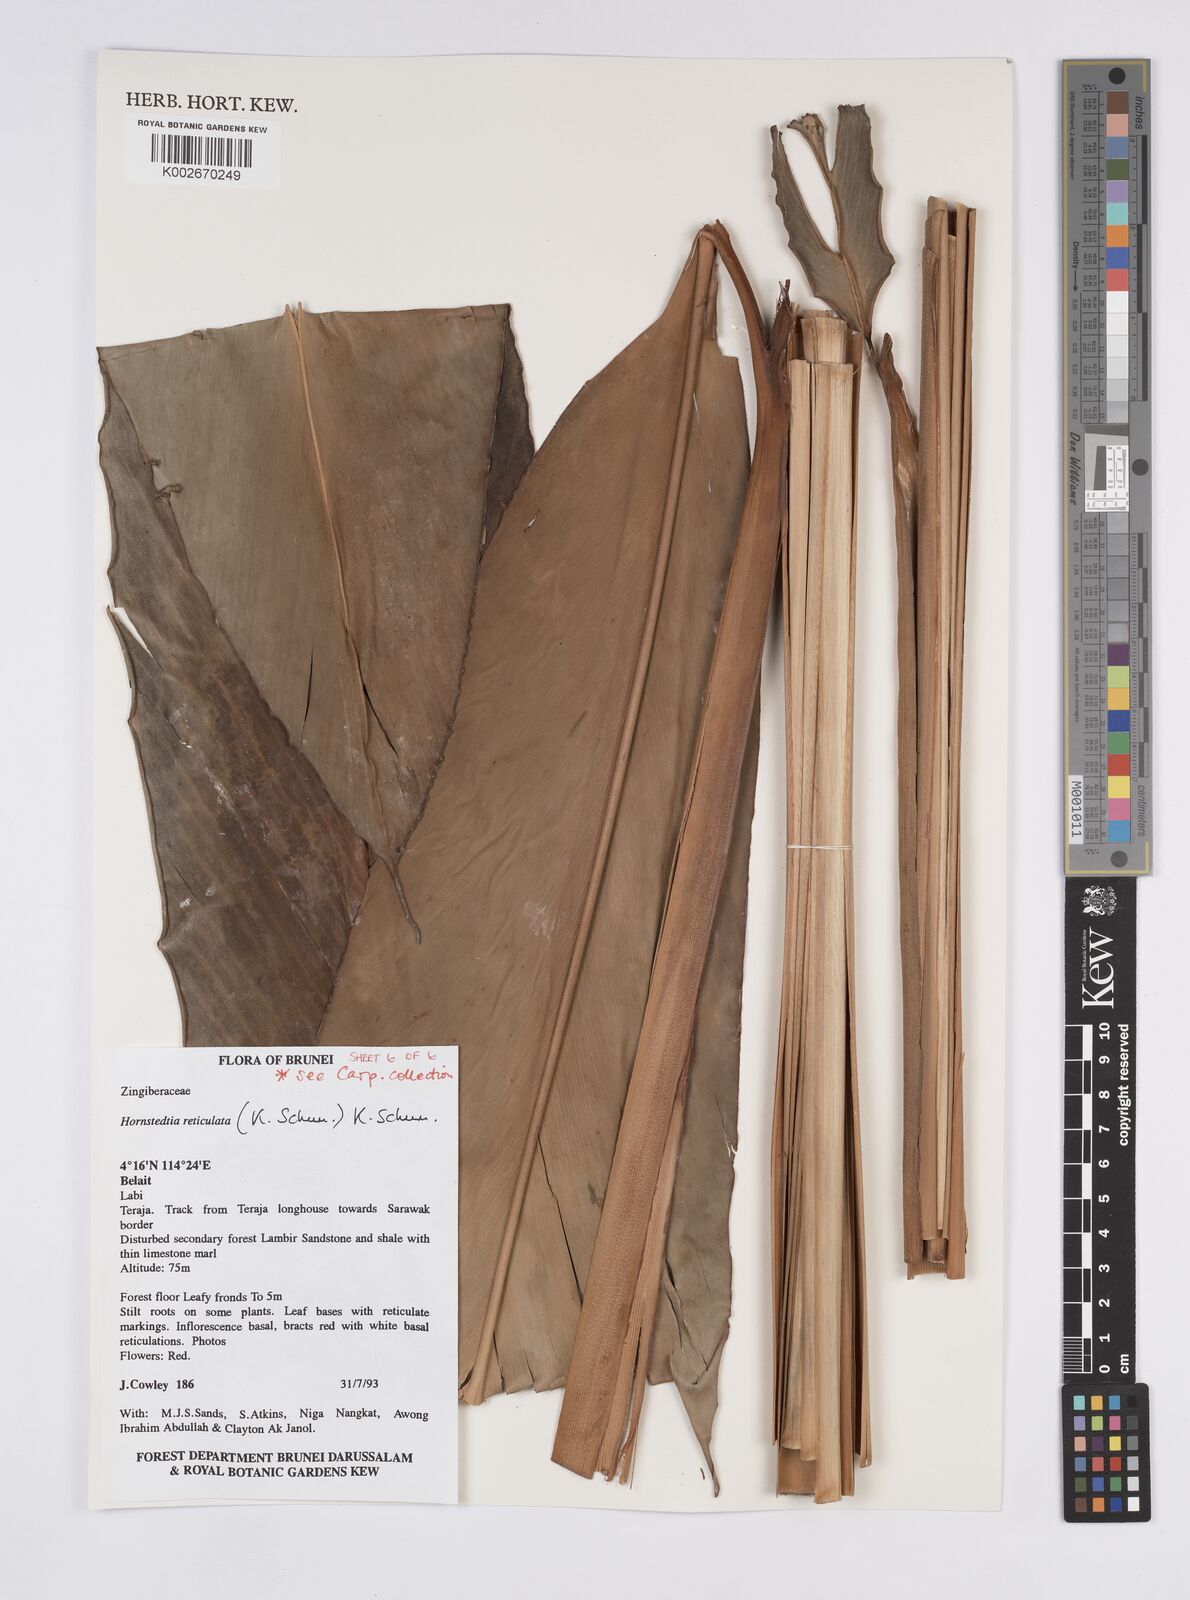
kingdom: Plantae
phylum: Tracheophyta
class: Liliopsida
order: Zingiberales
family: Zingiberaceae
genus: Hornstedtia
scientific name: Hornstedtia reticulata
